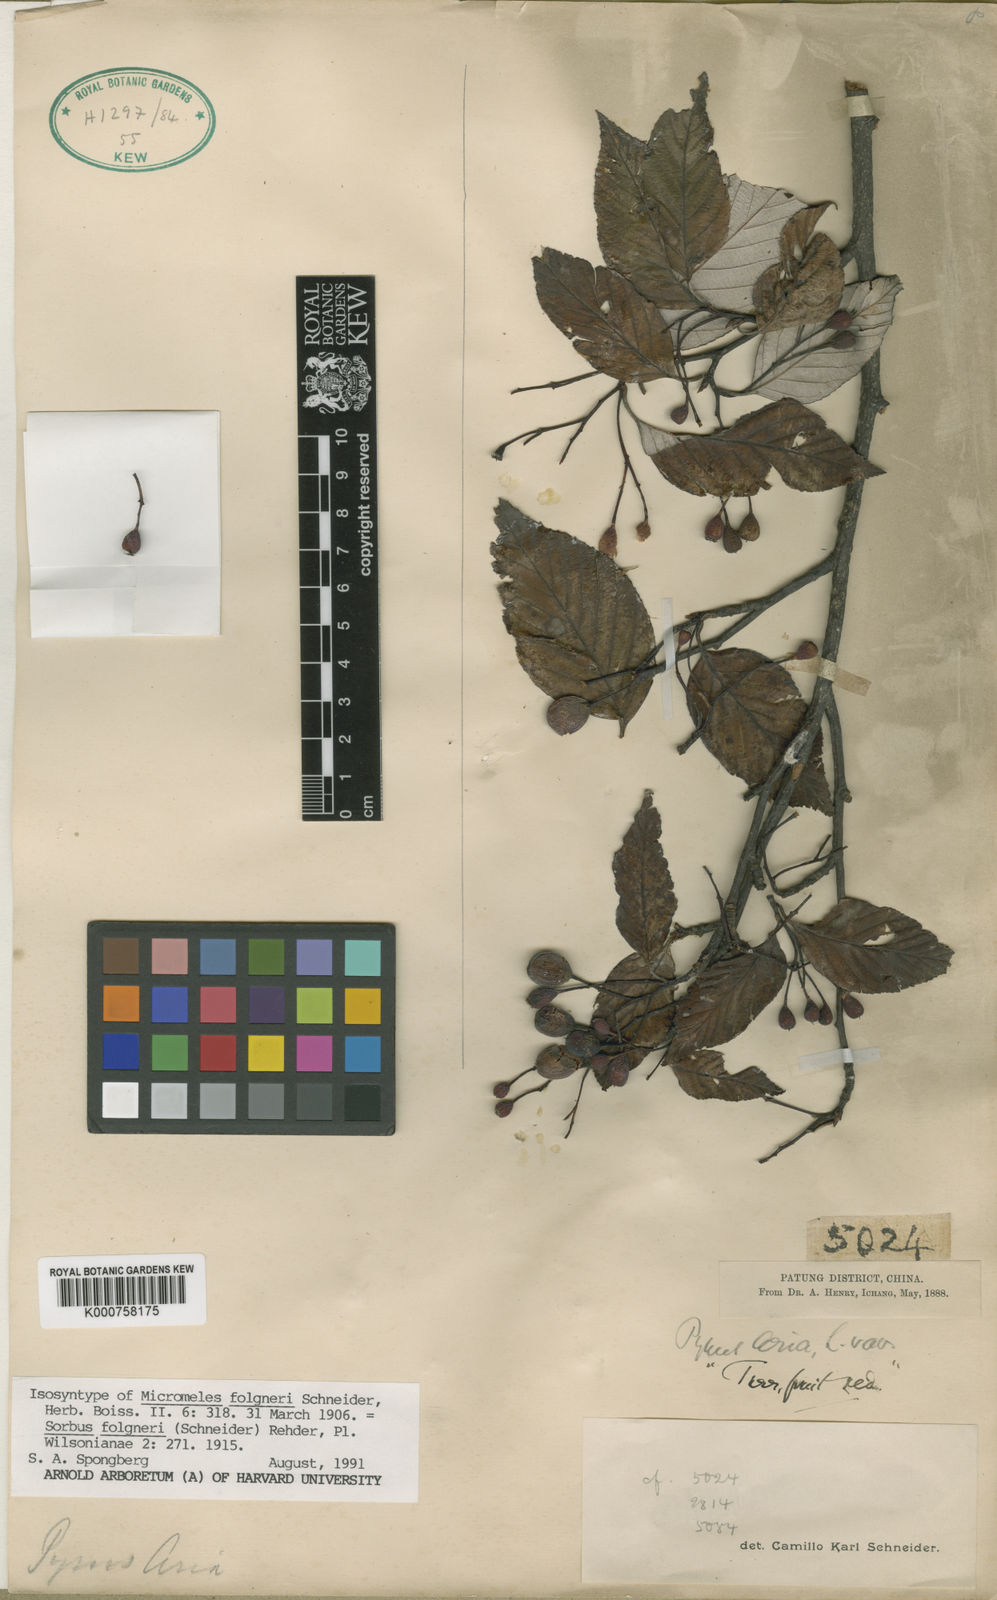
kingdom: Plantae
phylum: Tracheophyta
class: Magnoliopsida
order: Rosales
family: Rosaceae
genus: Sorbus
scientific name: Sorbus folgneri
